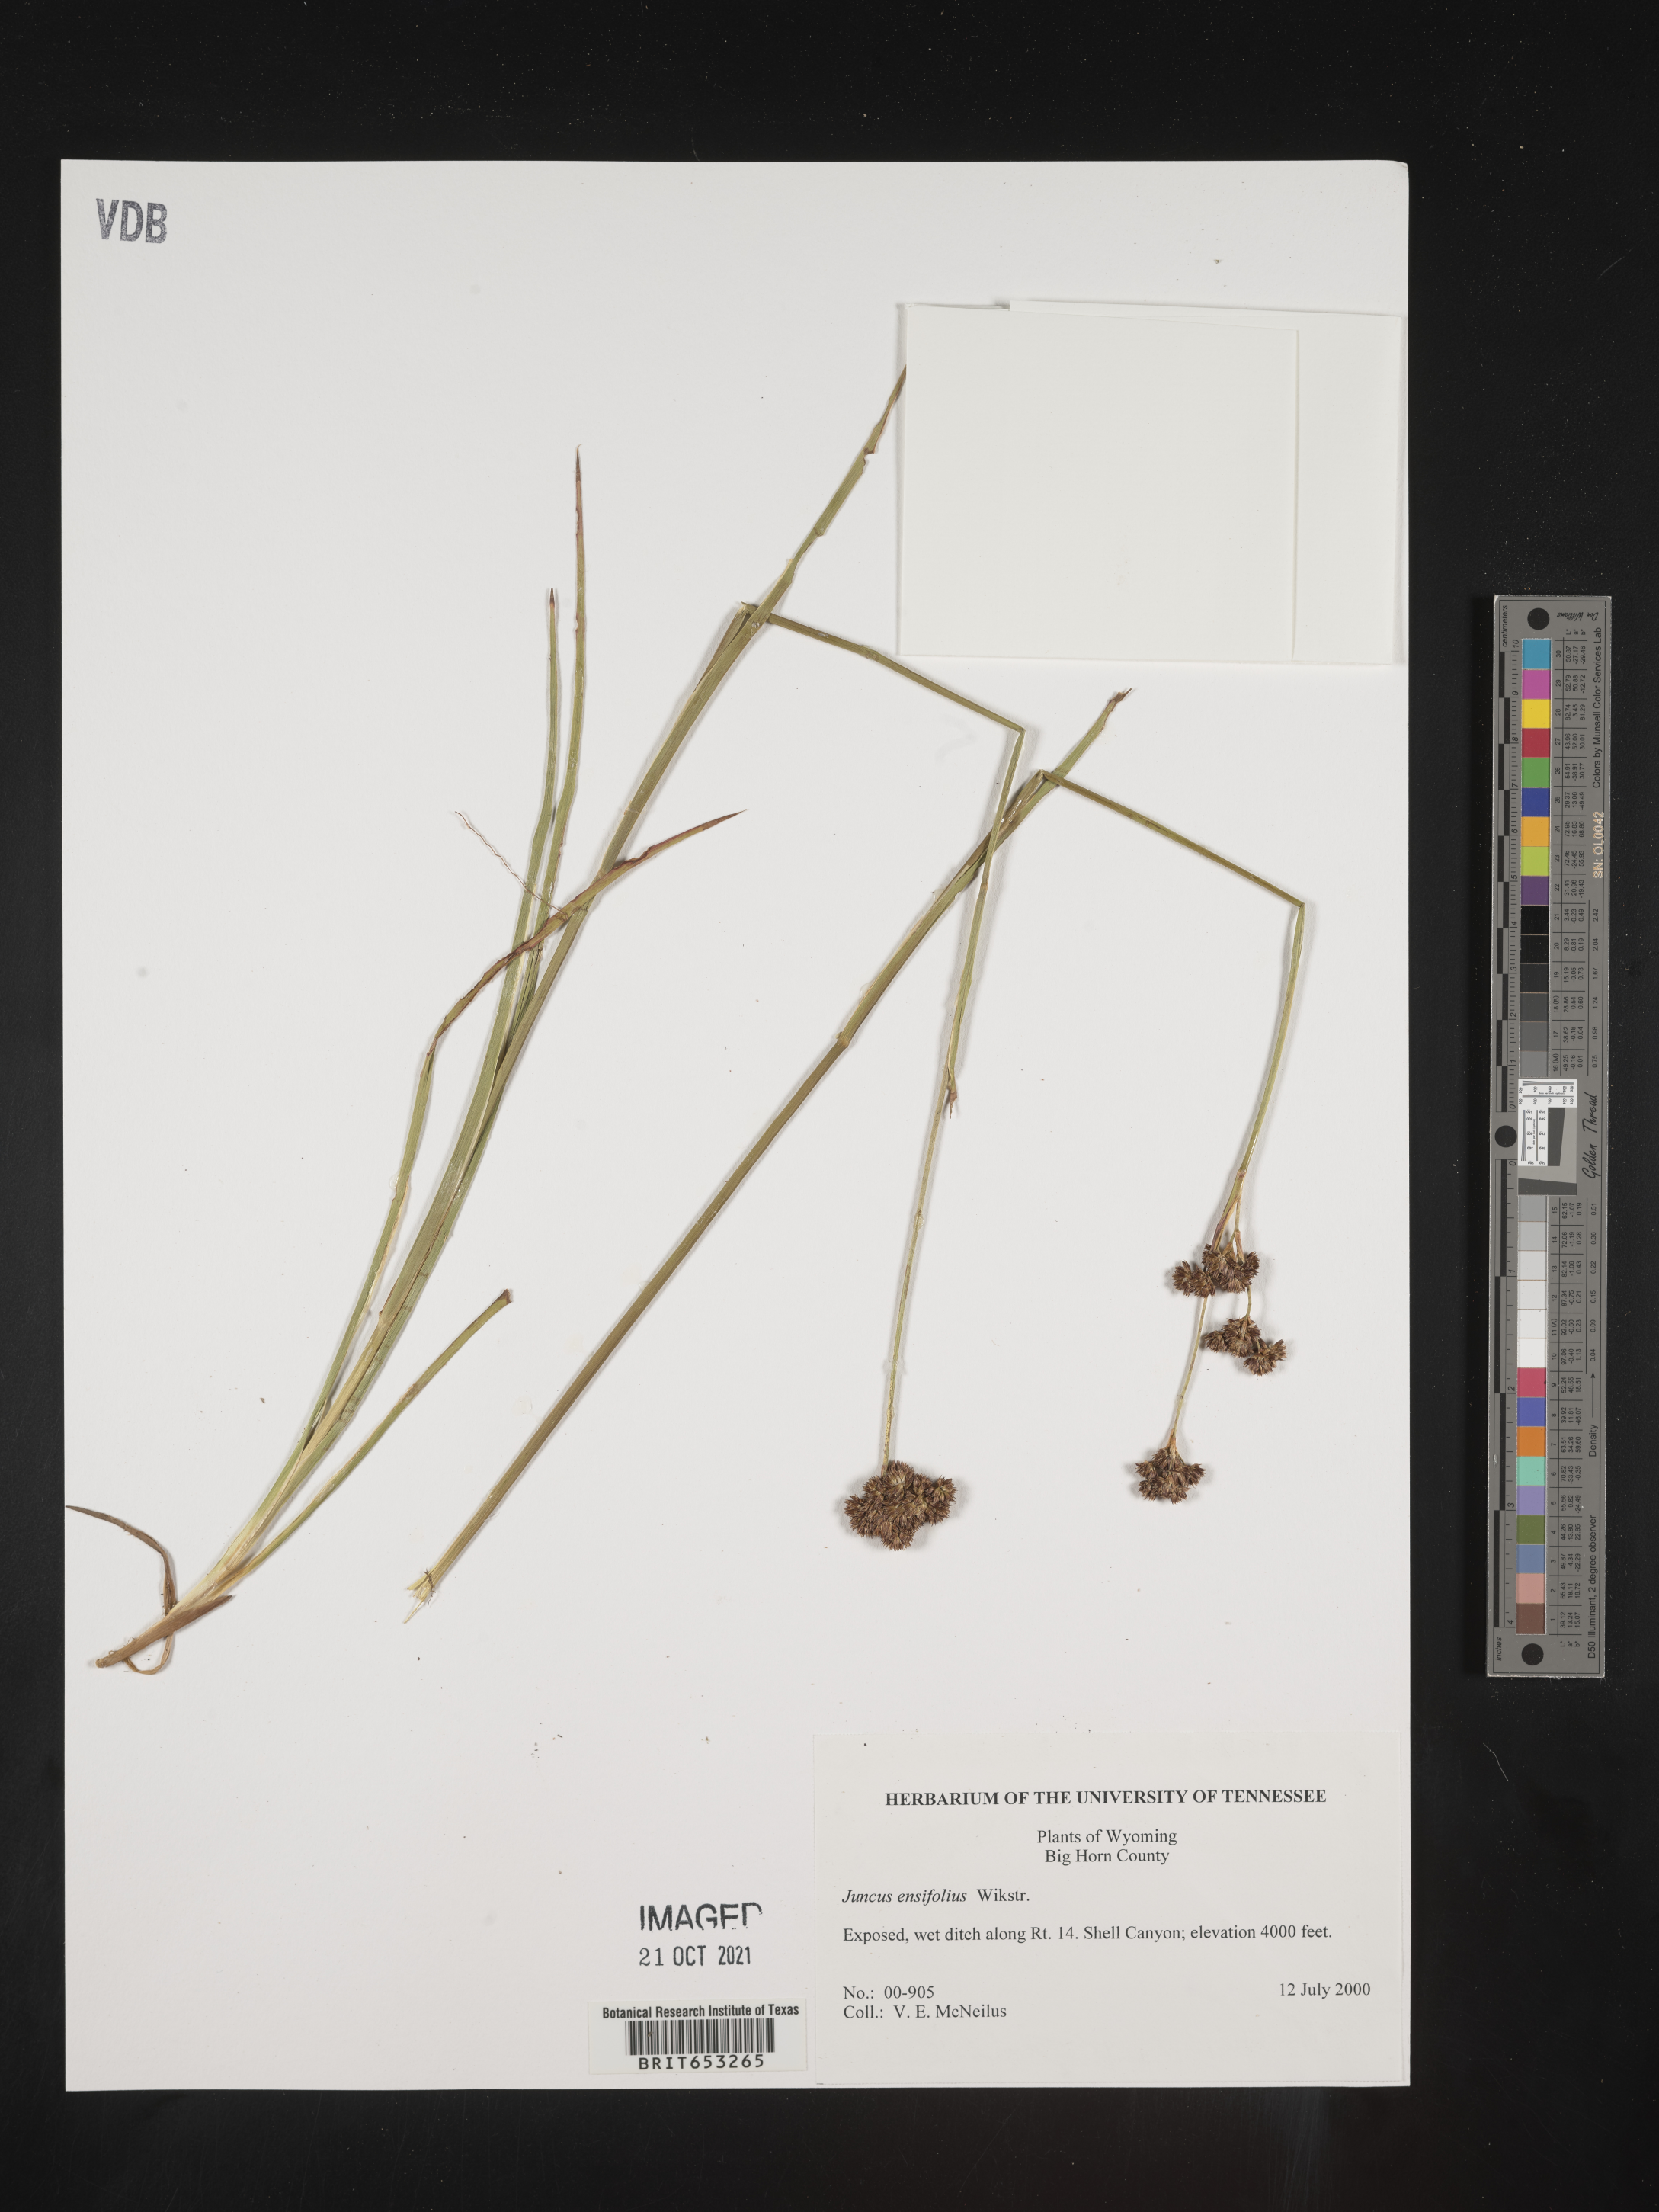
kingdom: Plantae
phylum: Tracheophyta
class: Liliopsida
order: Poales
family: Juncaceae
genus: Juncus
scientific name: Juncus ensifolius
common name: Sword-leaved rush
